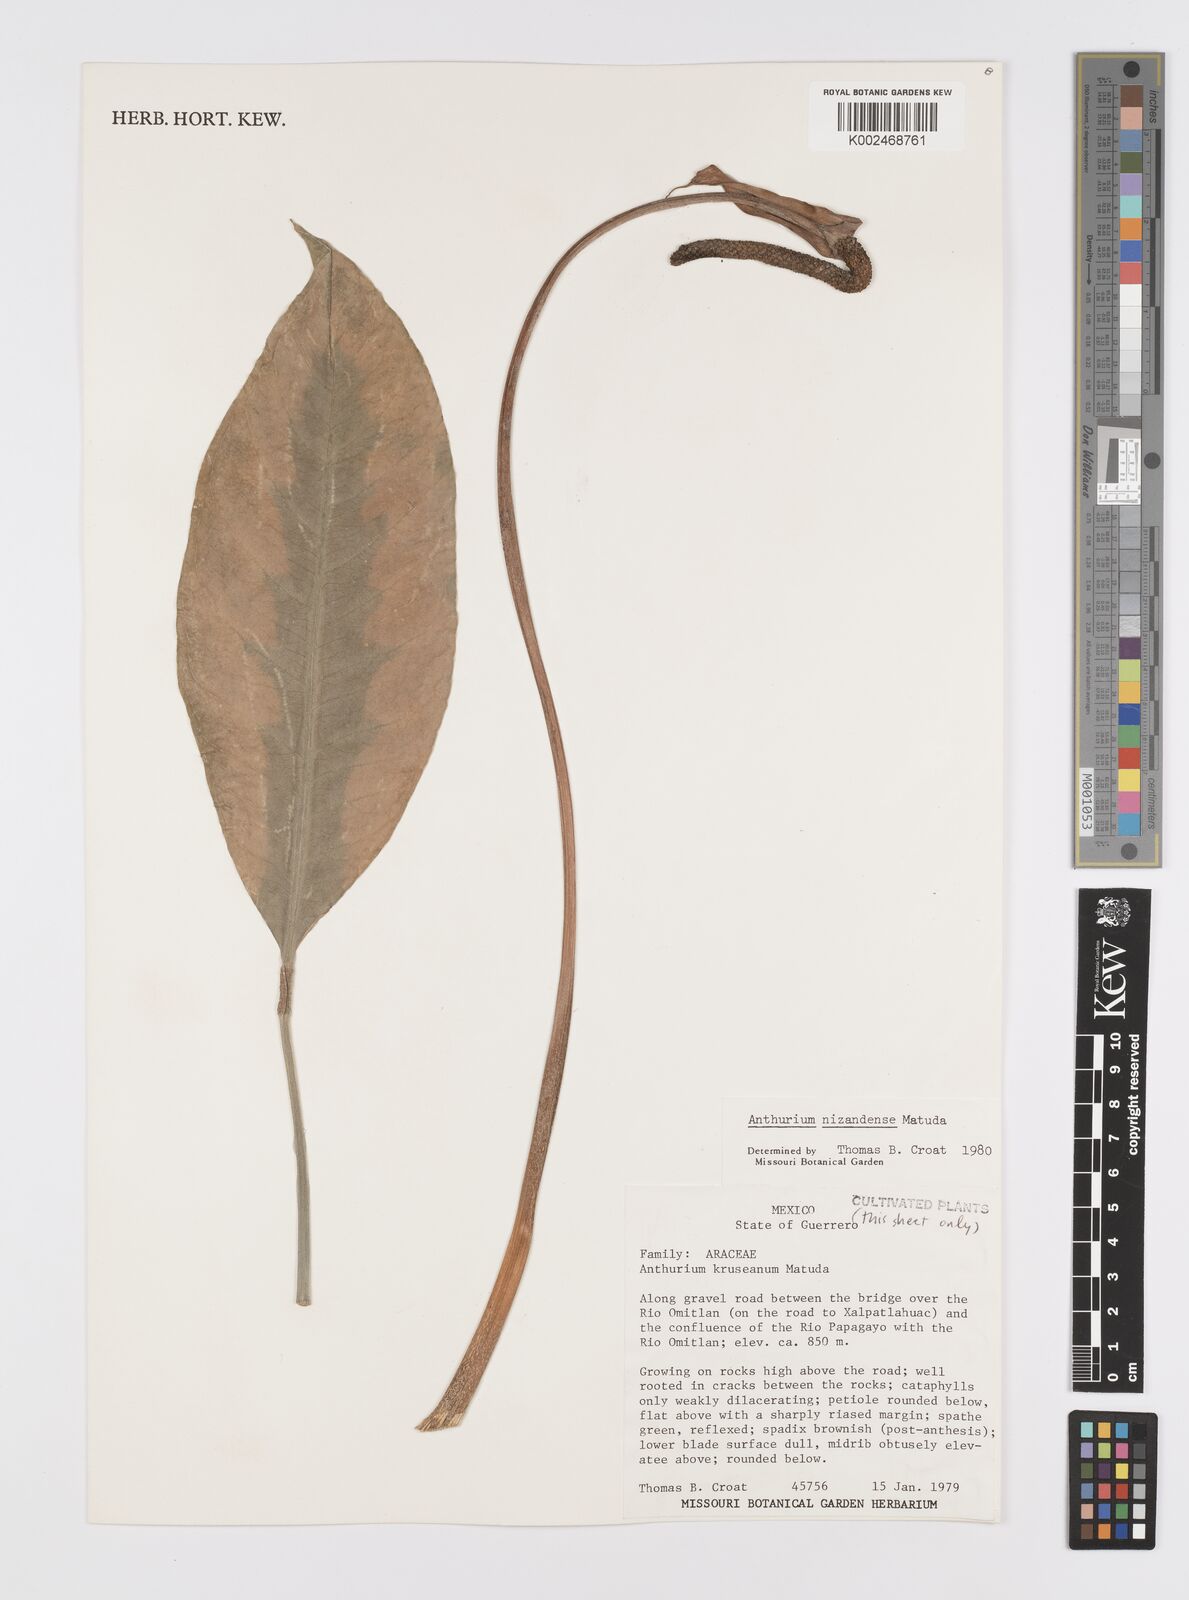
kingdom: Plantae
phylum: Tracheophyta
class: Liliopsida
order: Alismatales
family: Araceae
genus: Anthurium
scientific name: Anthurium nizandense
